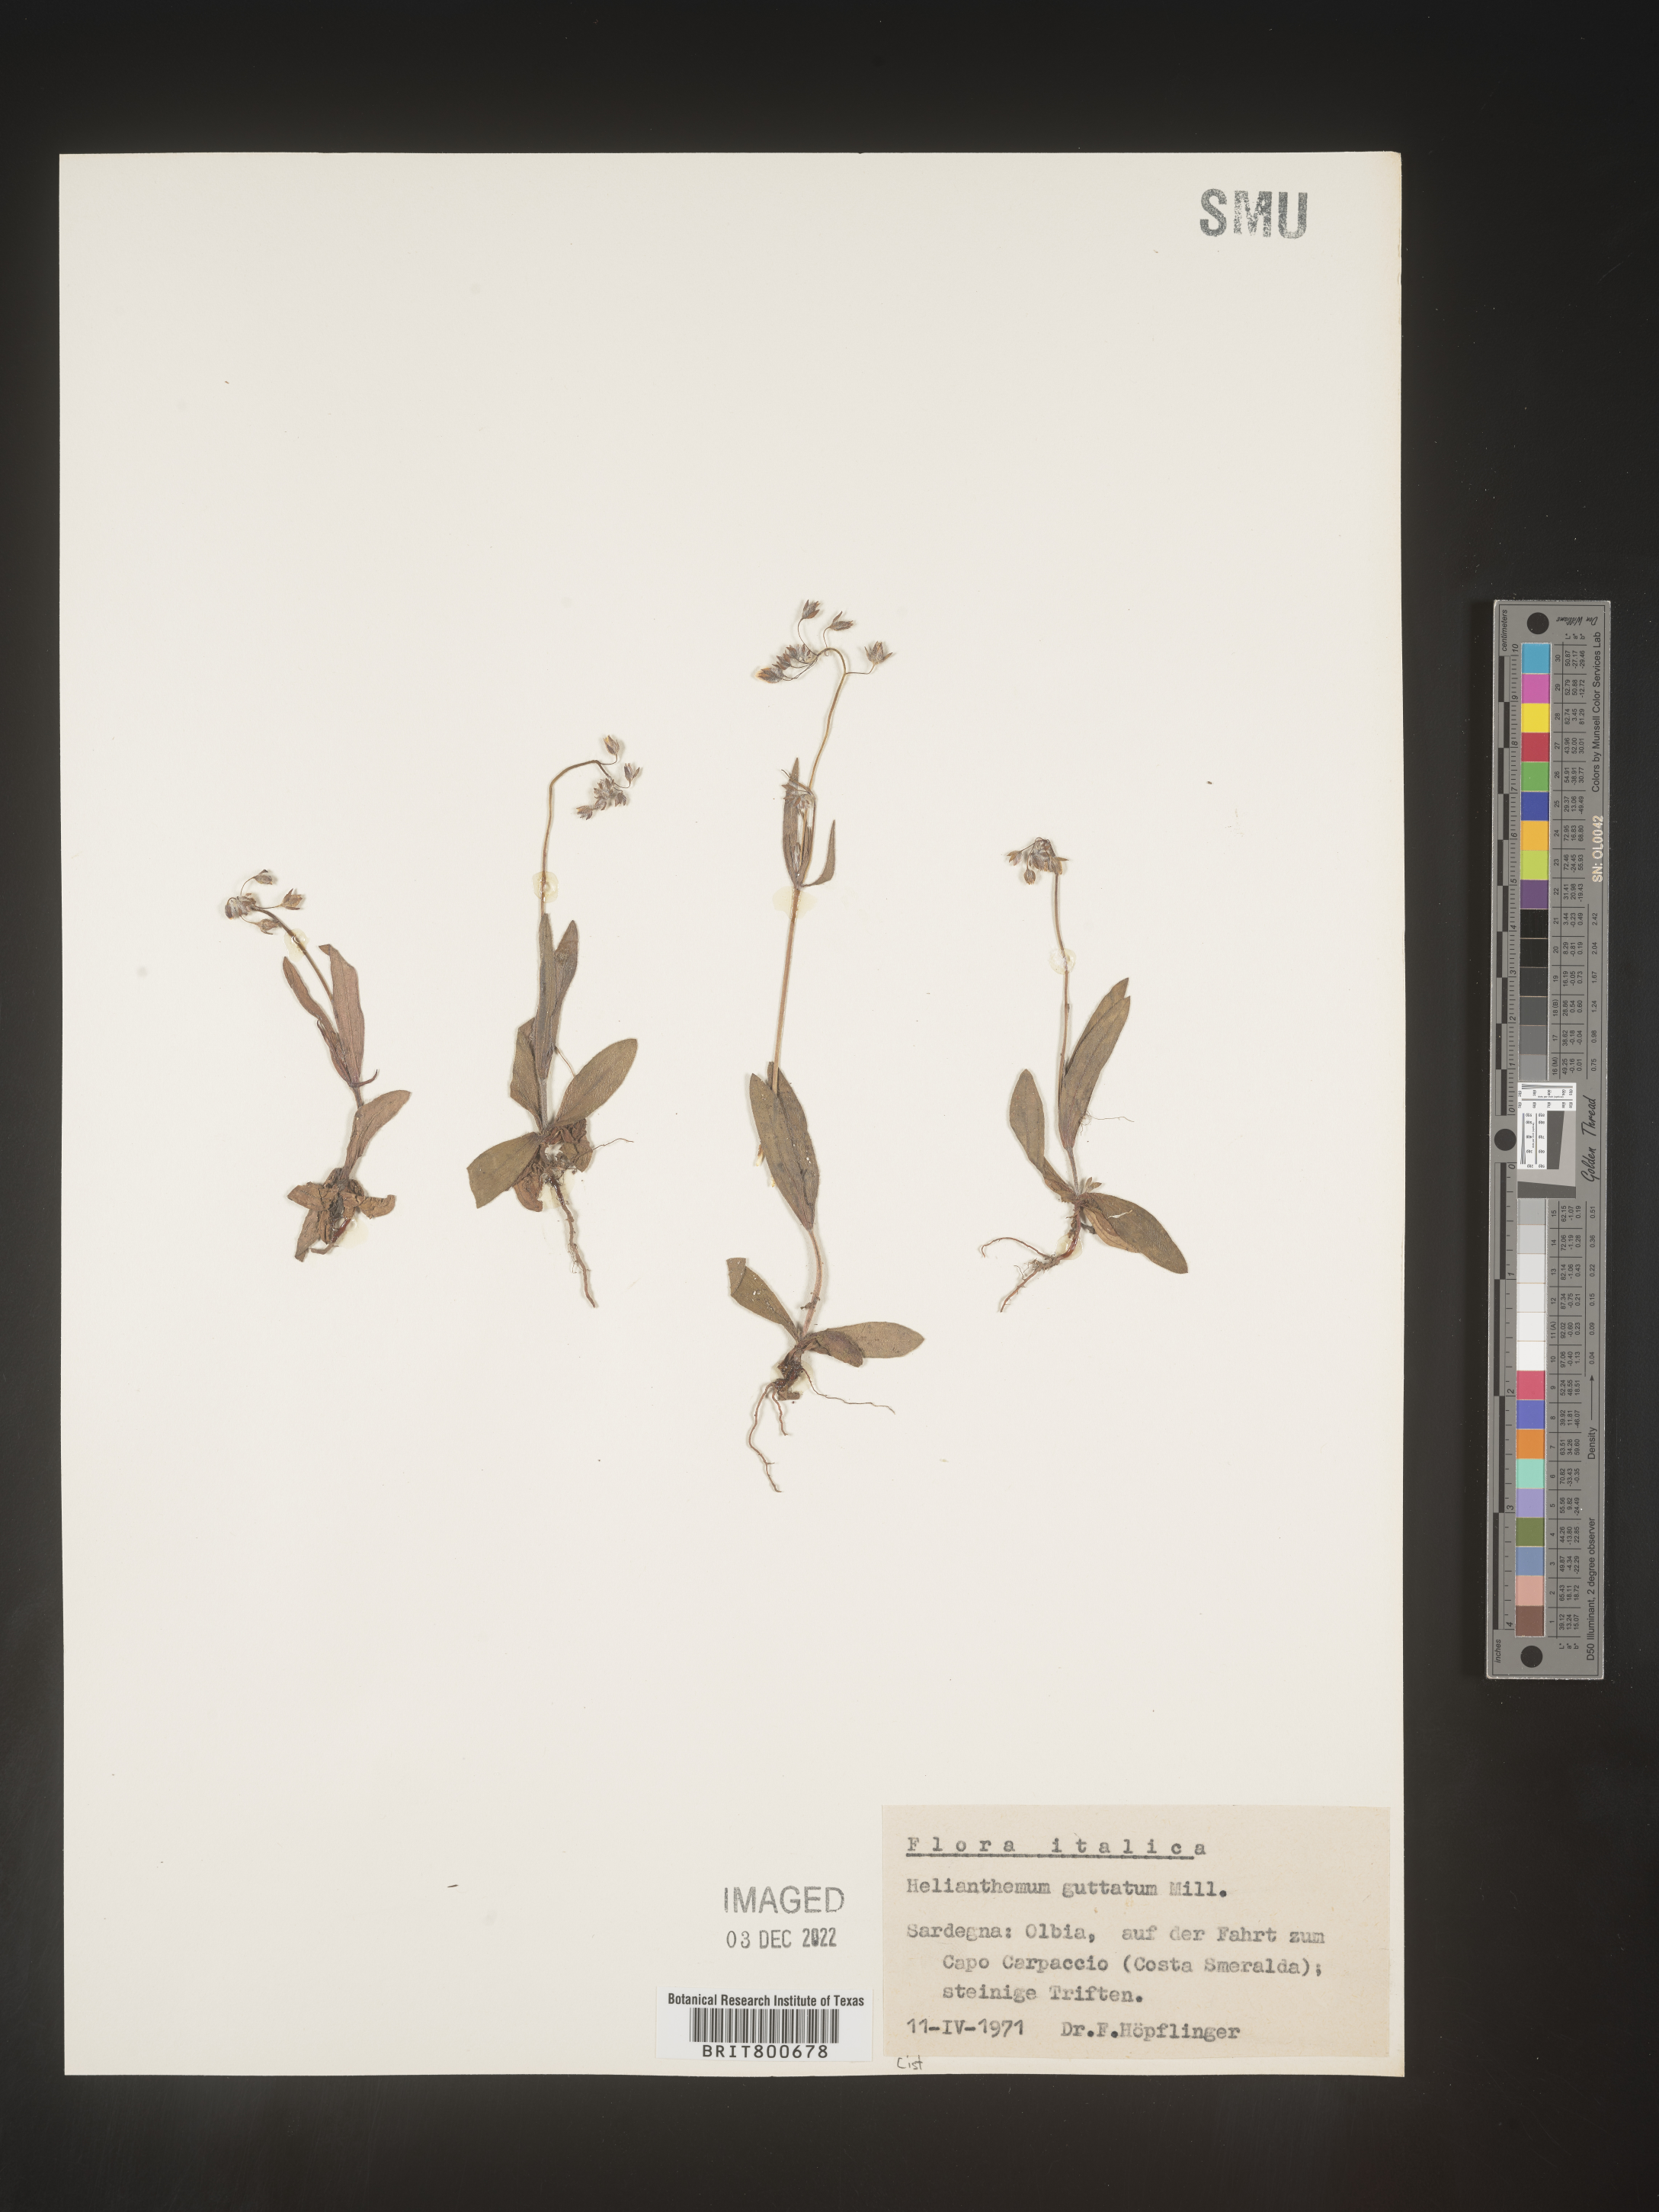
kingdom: Plantae
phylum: Tracheophyta
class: Magnoliopsida
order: Malvales
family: Cistaceae
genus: Helianthemum
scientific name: Helianthemum
